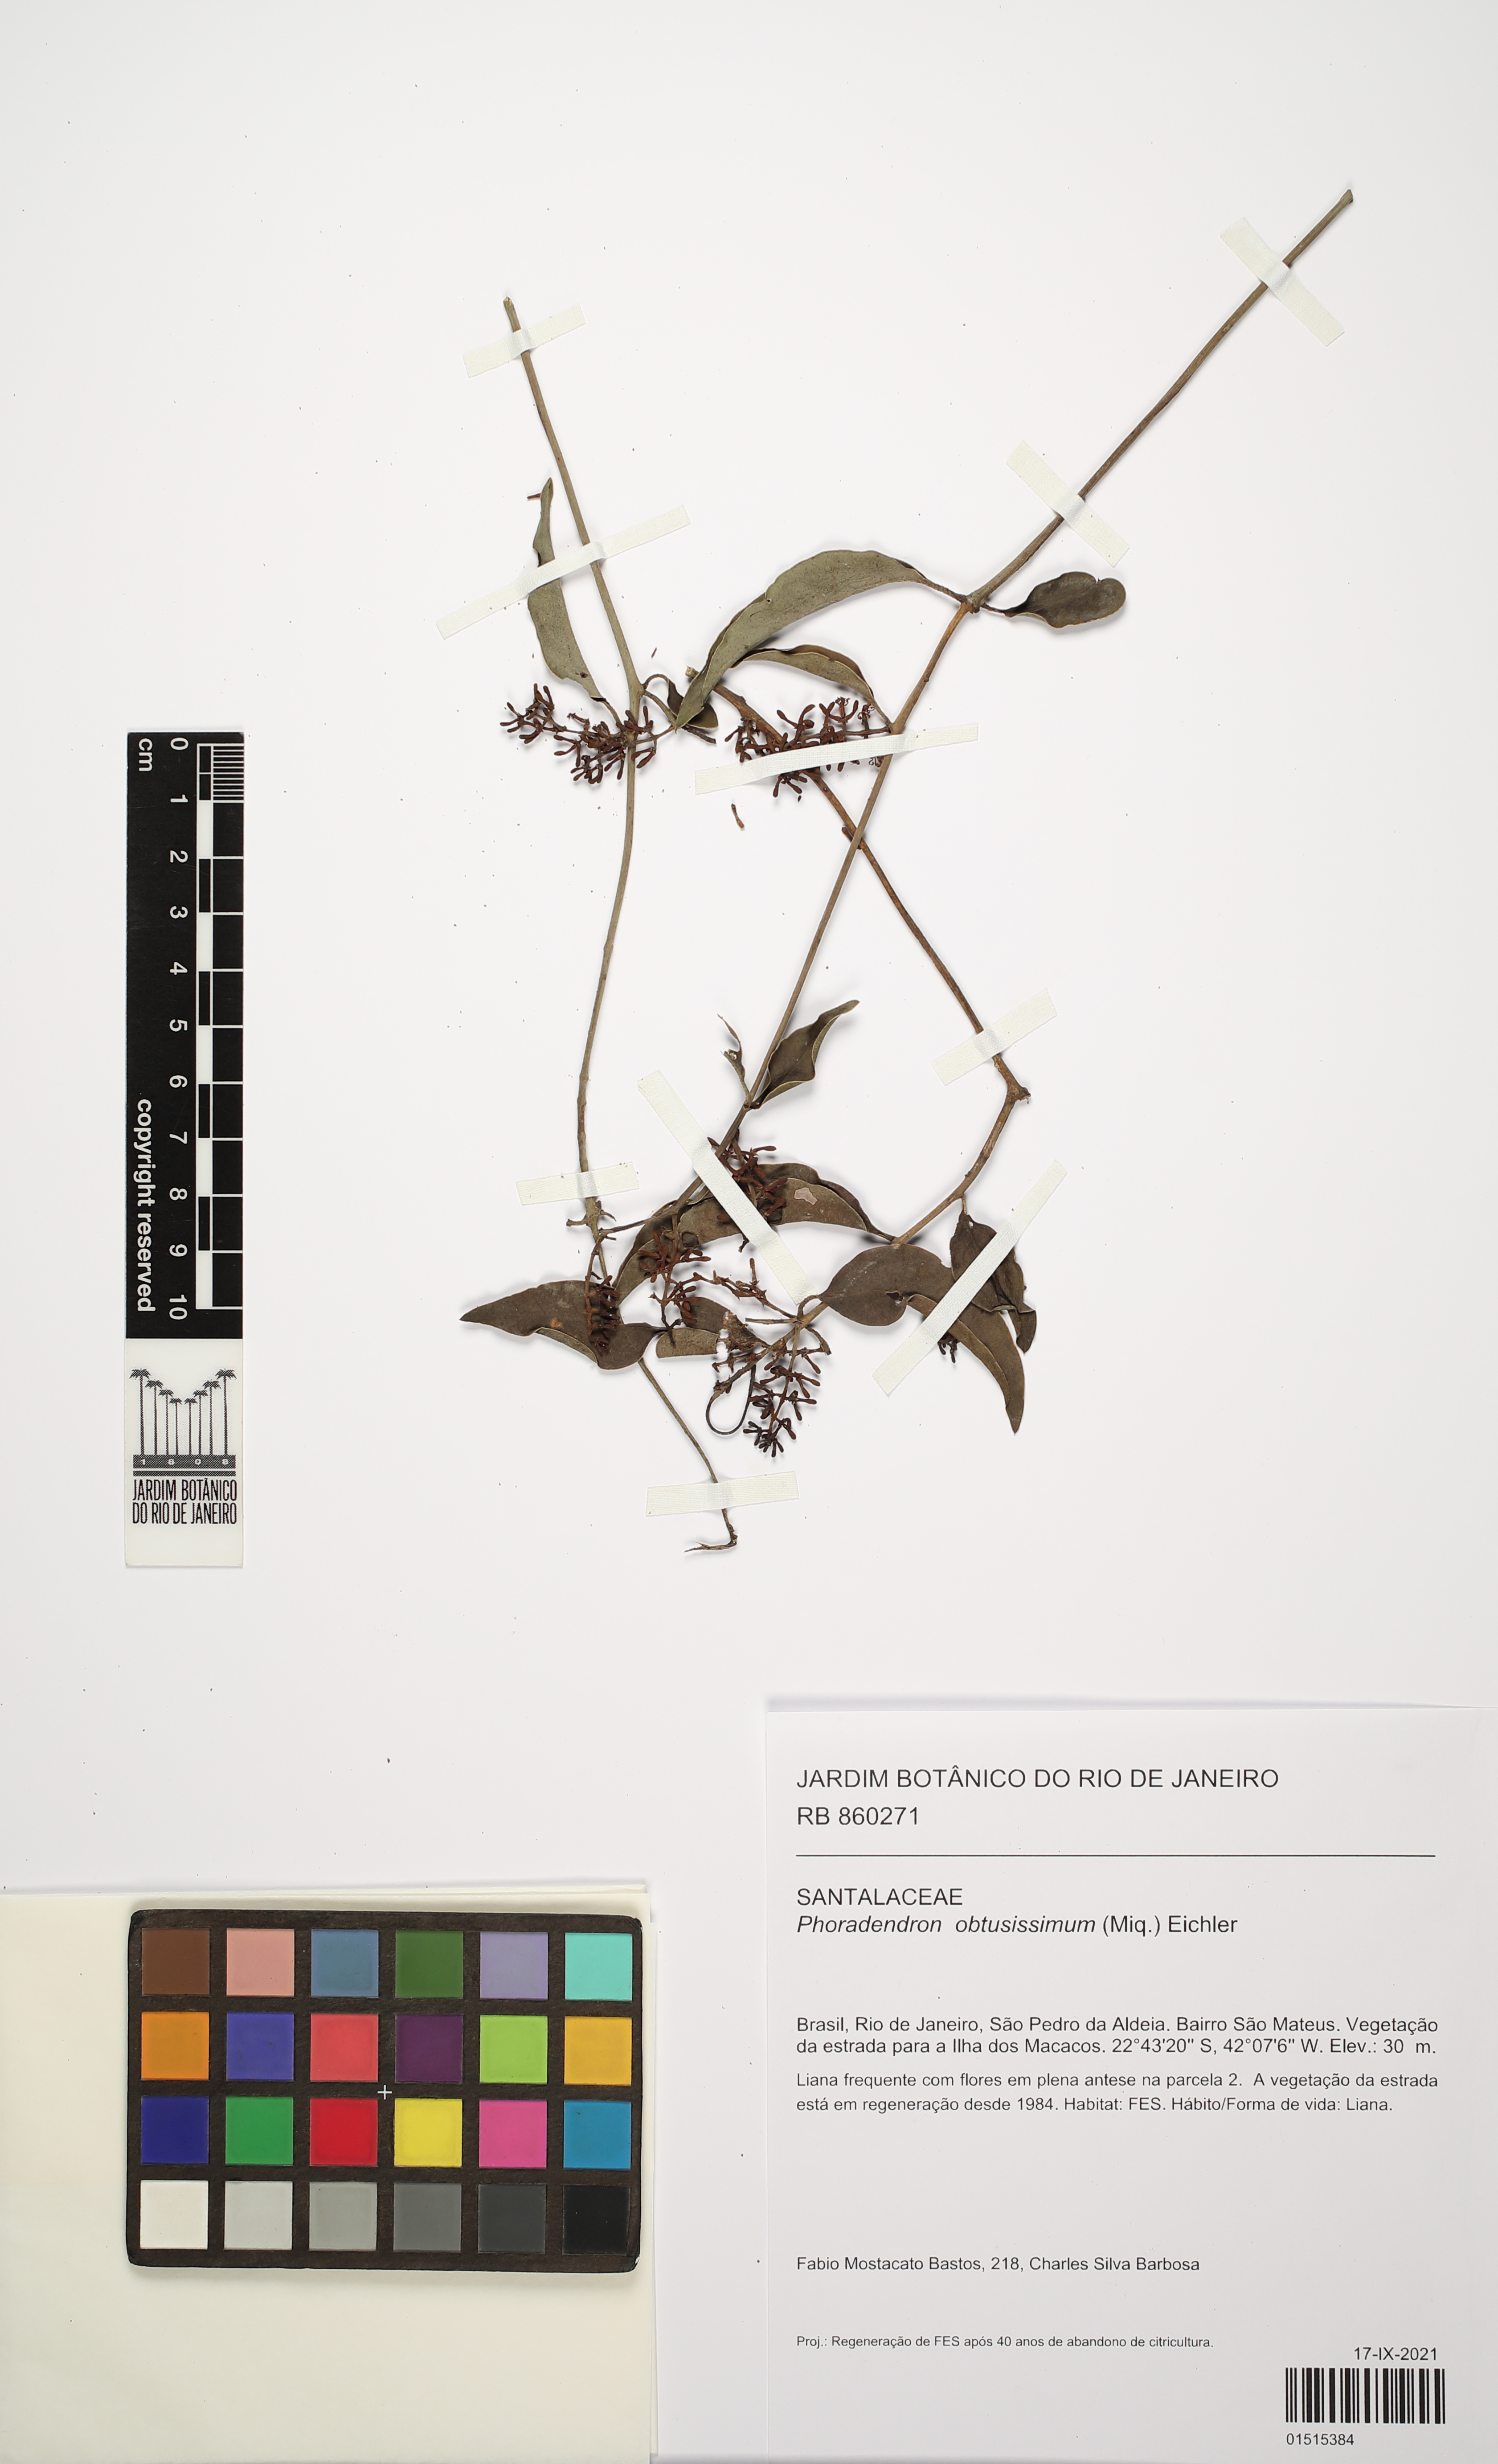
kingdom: Plantae
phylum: Tracheophyta
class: Magnoliopsida
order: Santalales
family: Viscaceae
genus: Phoradendron
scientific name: Phoradendron obtusissimum
